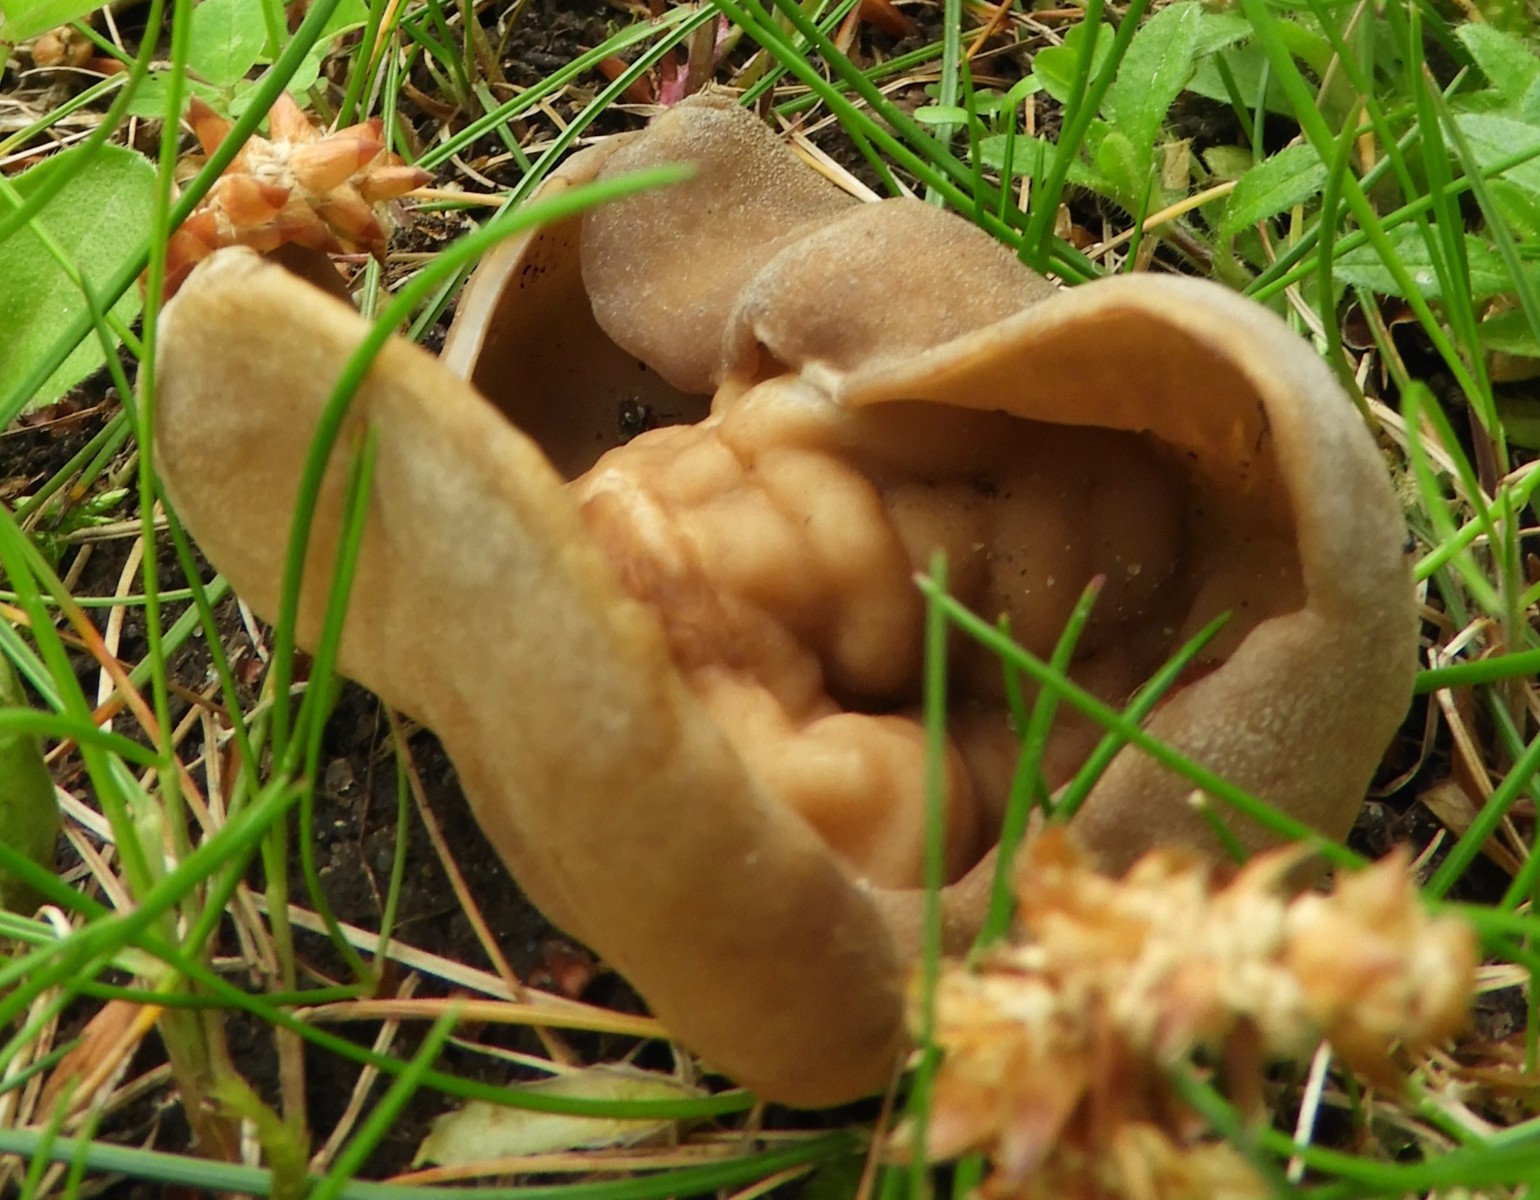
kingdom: Fungi
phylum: Ascomycota
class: Pezizomycetes
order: Pezizales
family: Morchellaceae
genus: Disciotis
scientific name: Disciotis venosa
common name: klor-bægermorkel
